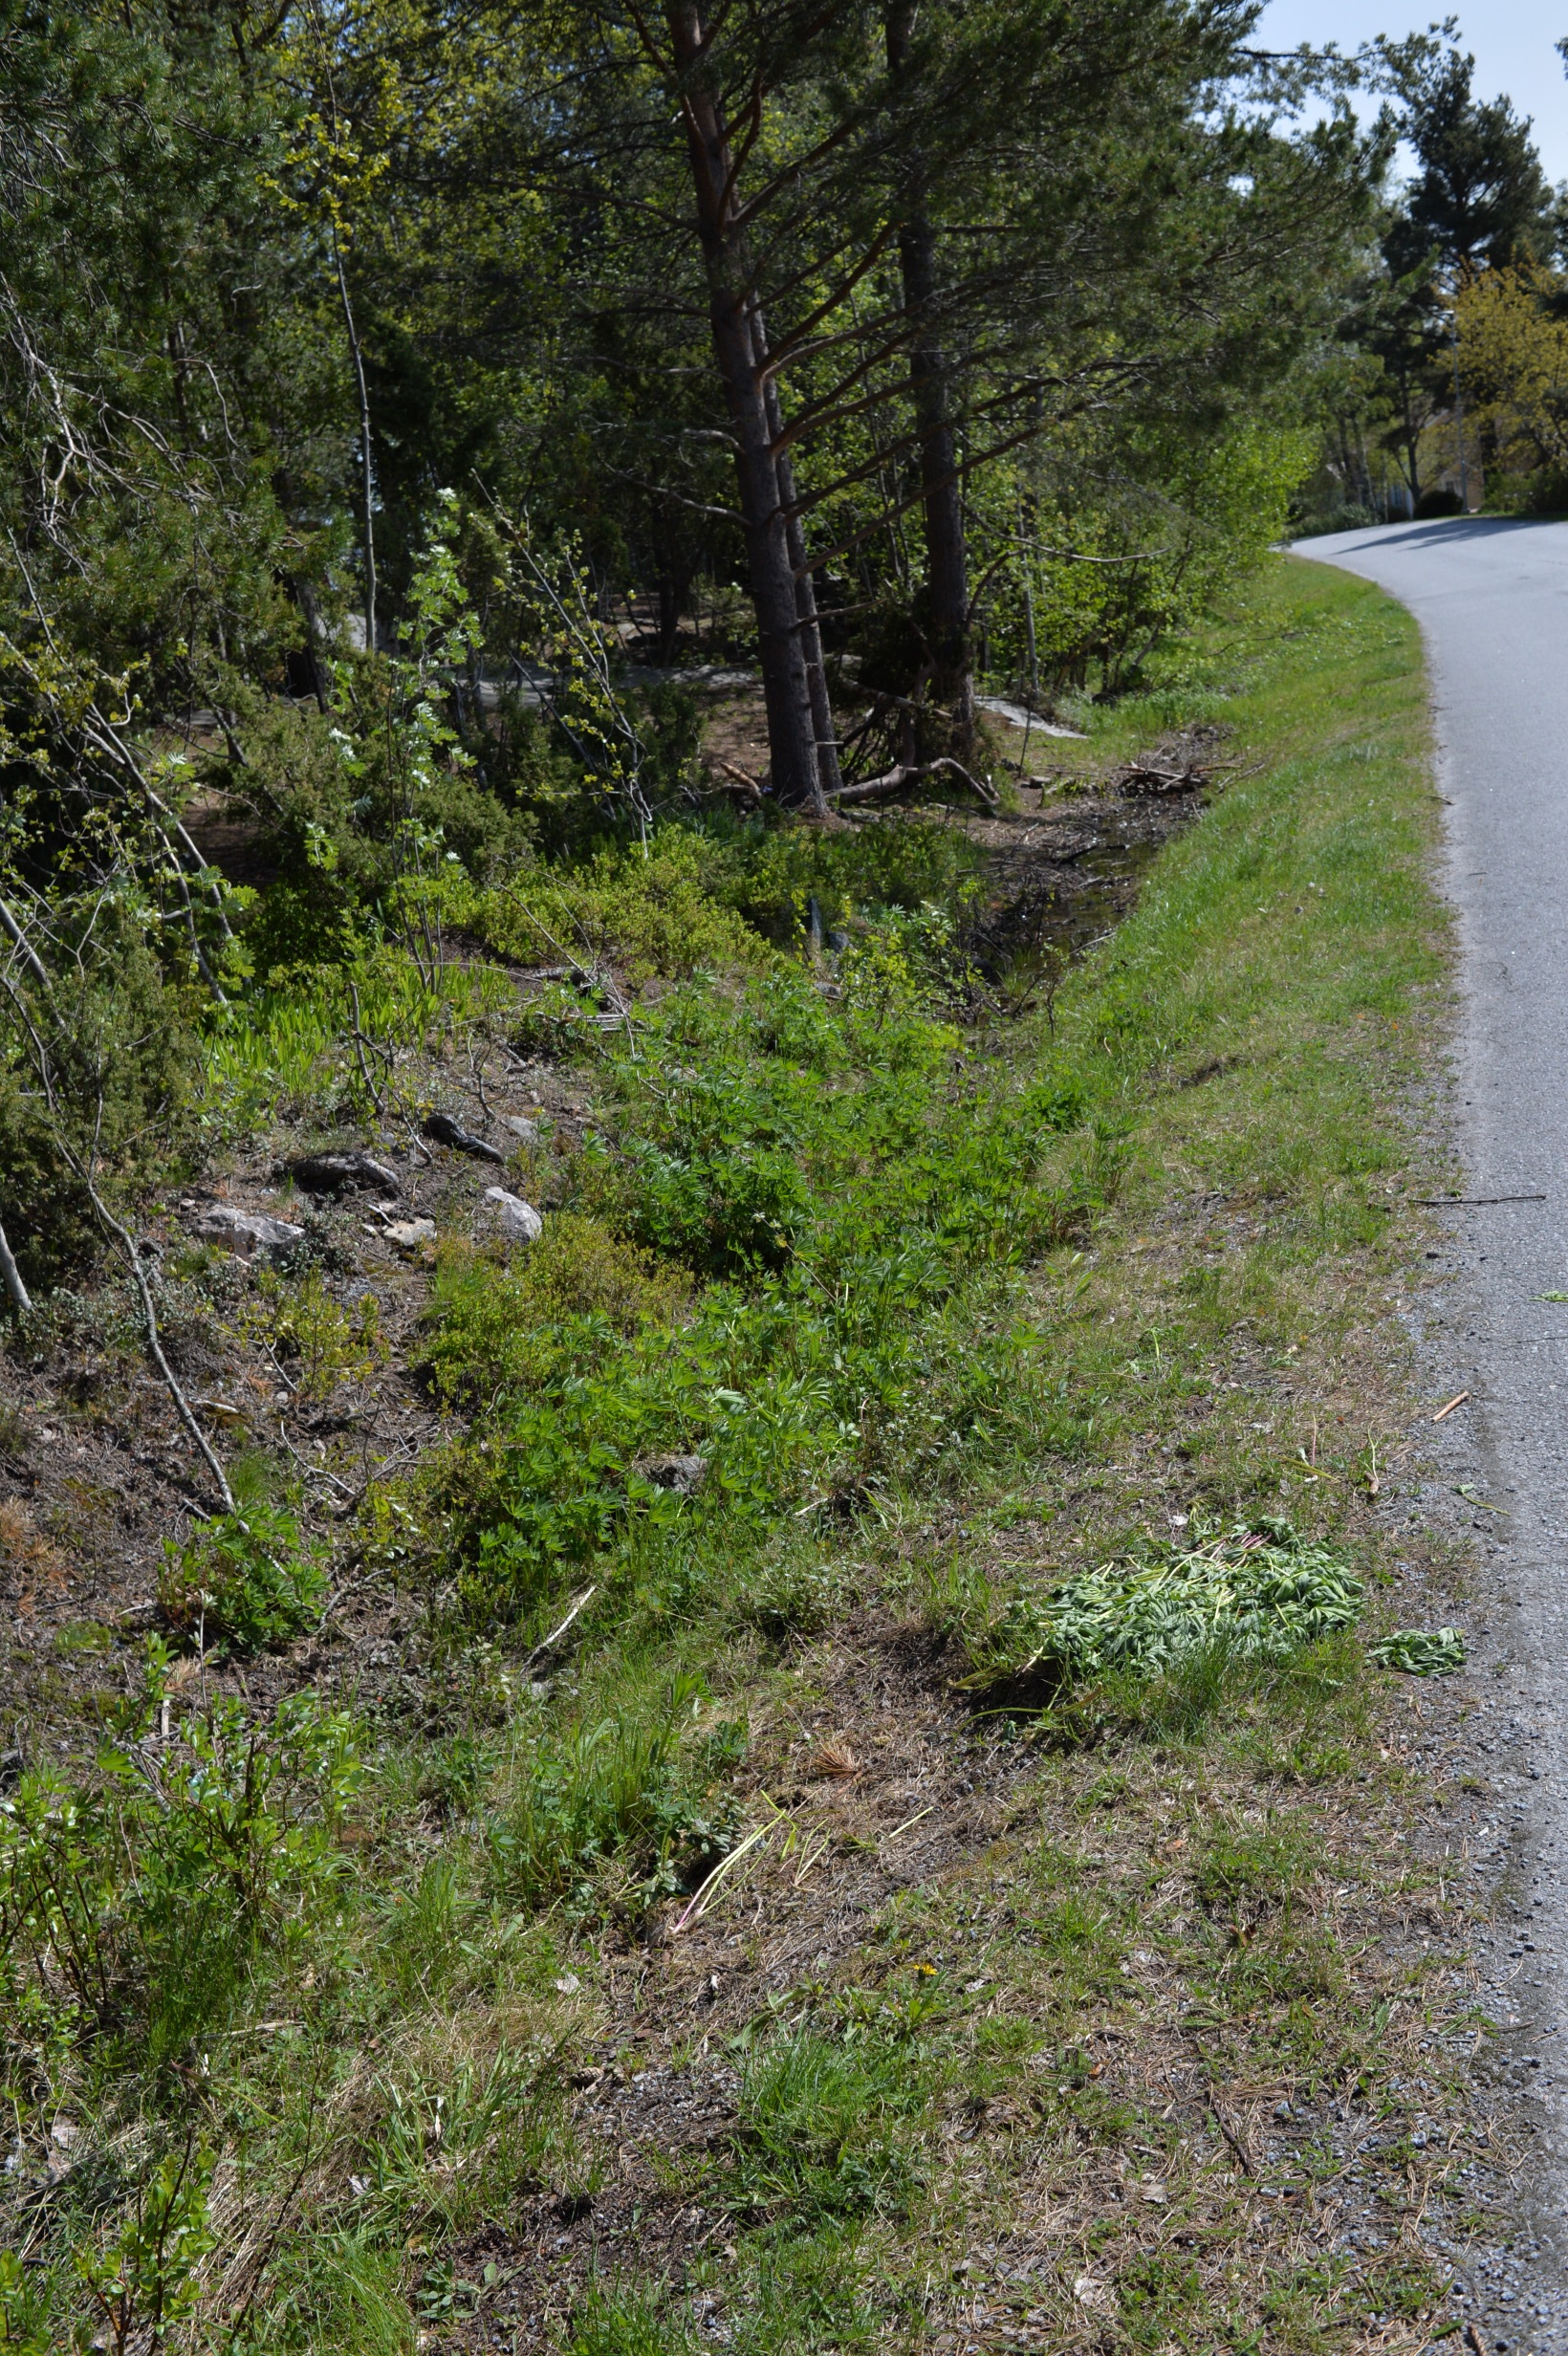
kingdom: Plantae
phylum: Tracheophyta
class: Magnoliopsida
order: Fabales
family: Fabaceae
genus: Lupinus
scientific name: Lupinus polyphyllus
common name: Garden lupin
